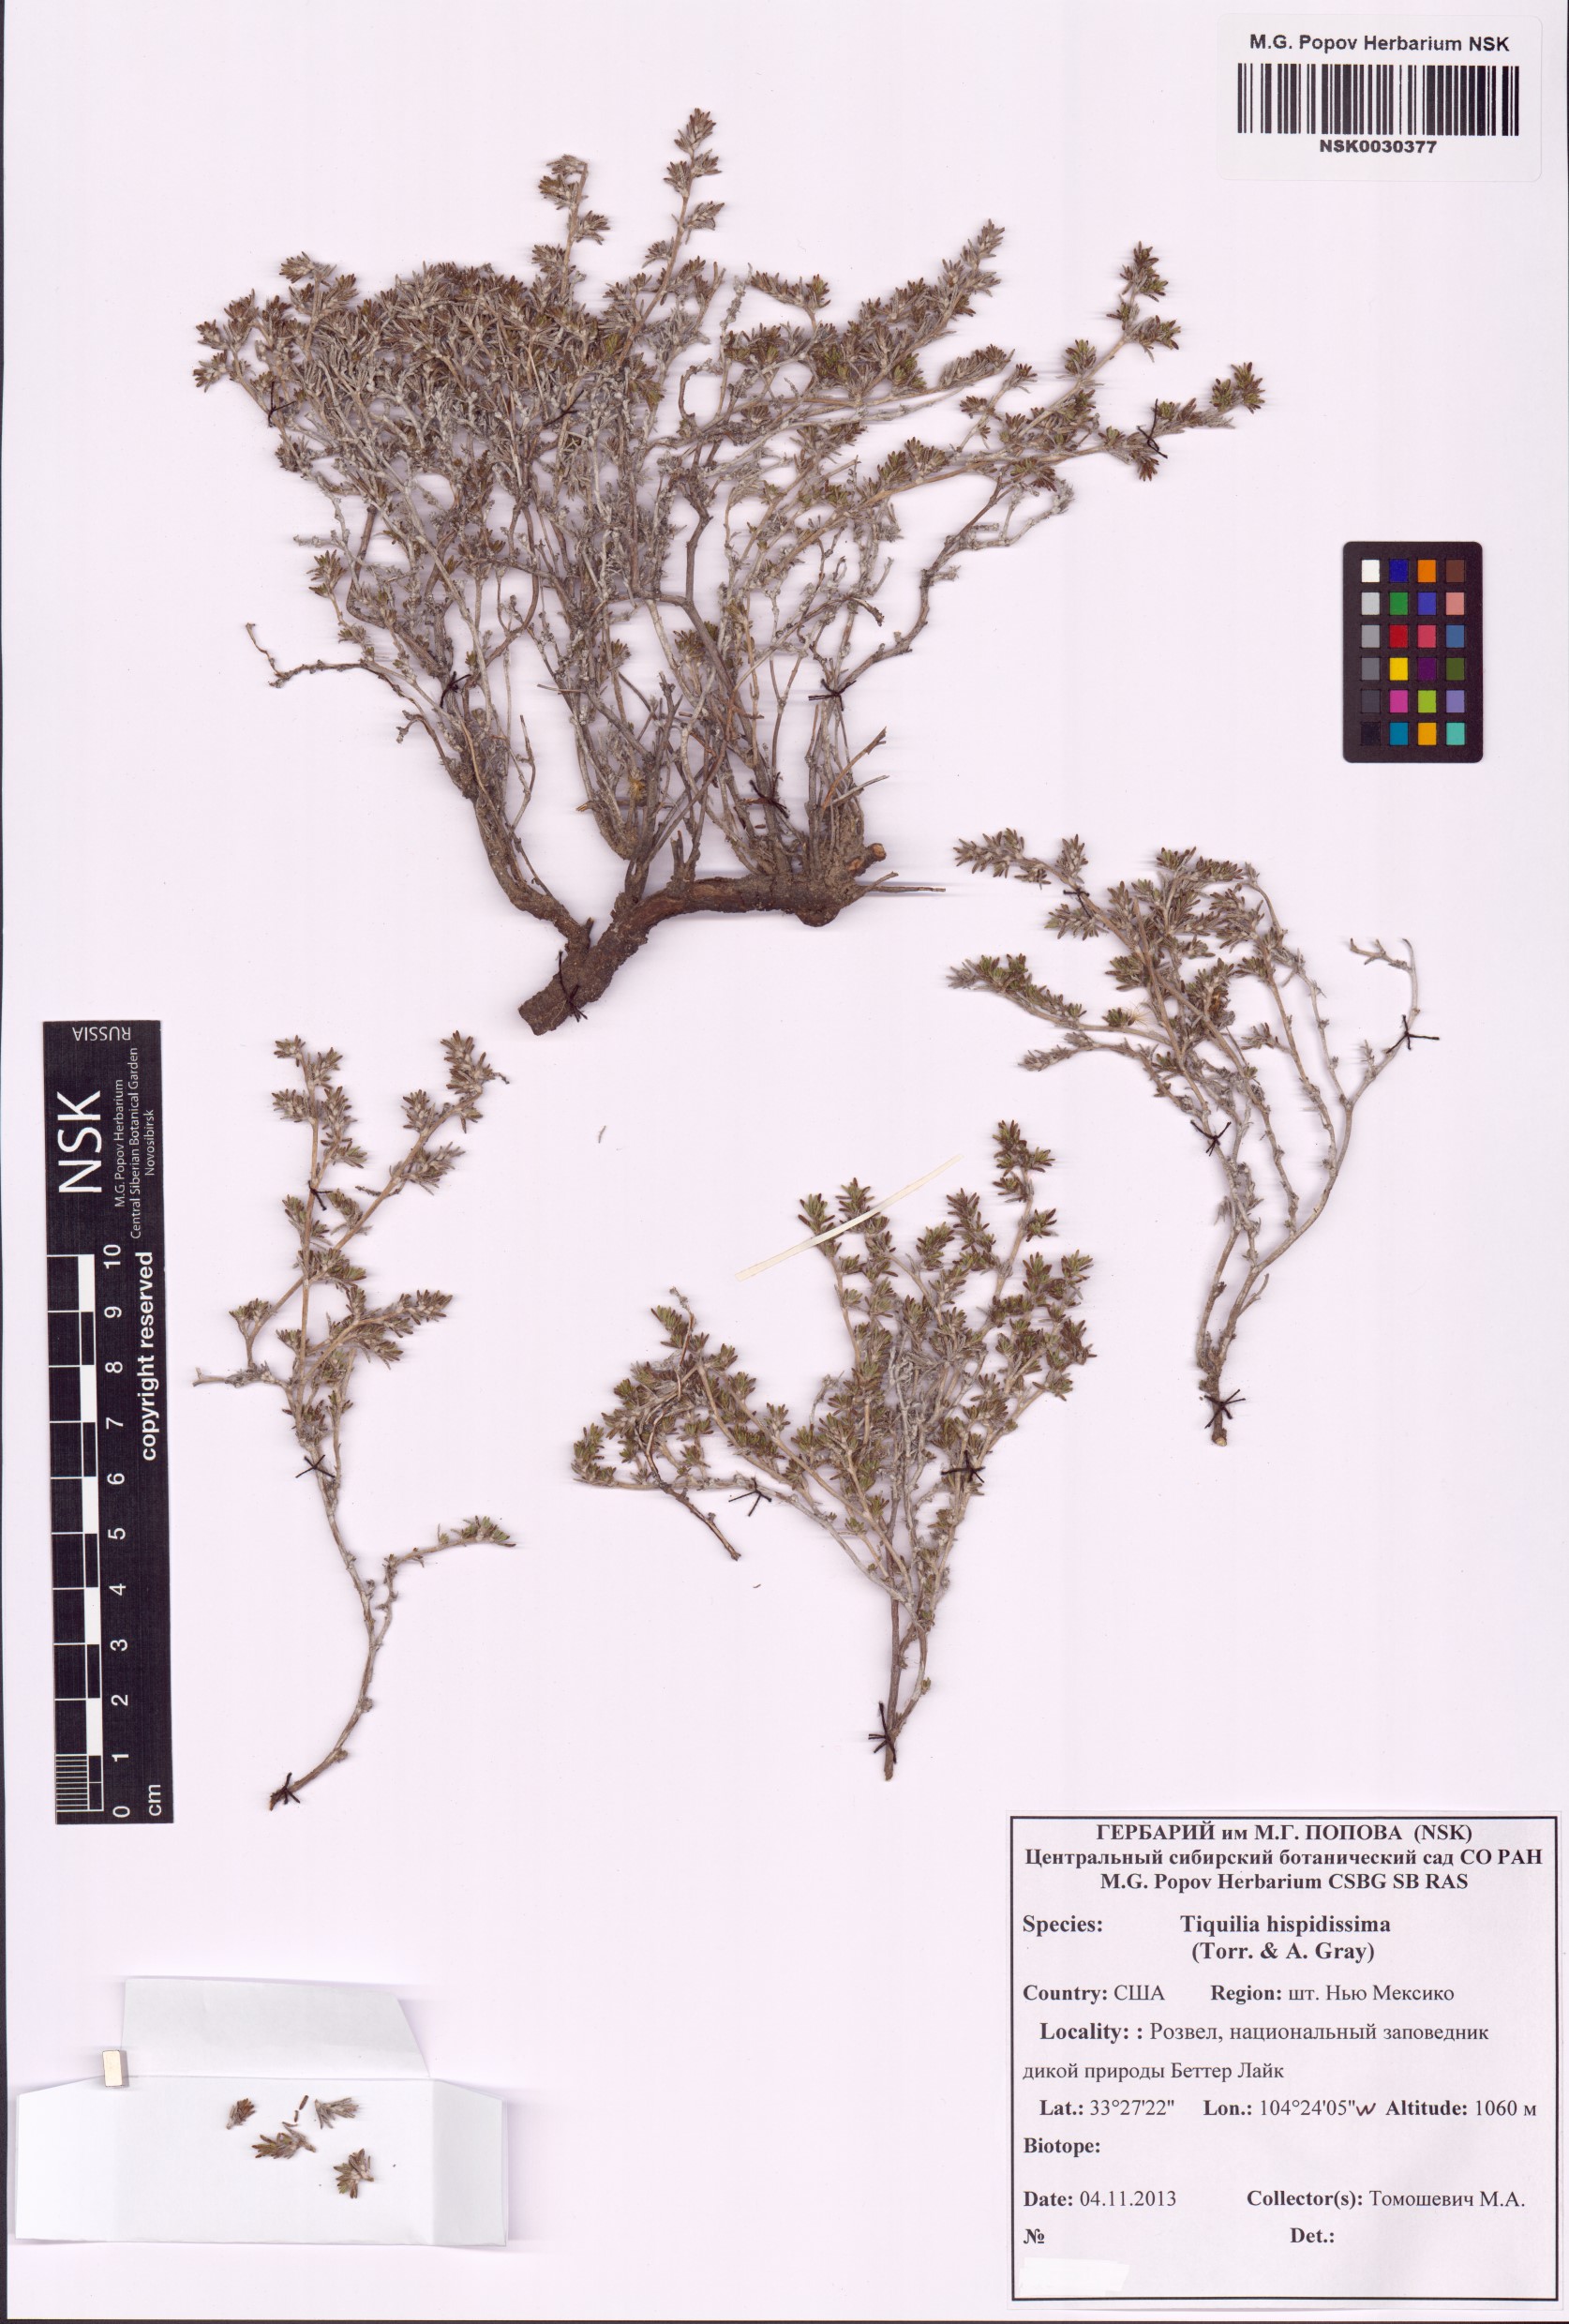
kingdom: Plantae
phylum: Tracheophyta
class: Magnoliopsida
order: Boraginales
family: Ehretiaceae
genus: Tiquilia
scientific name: Tiquilia hispidissima
